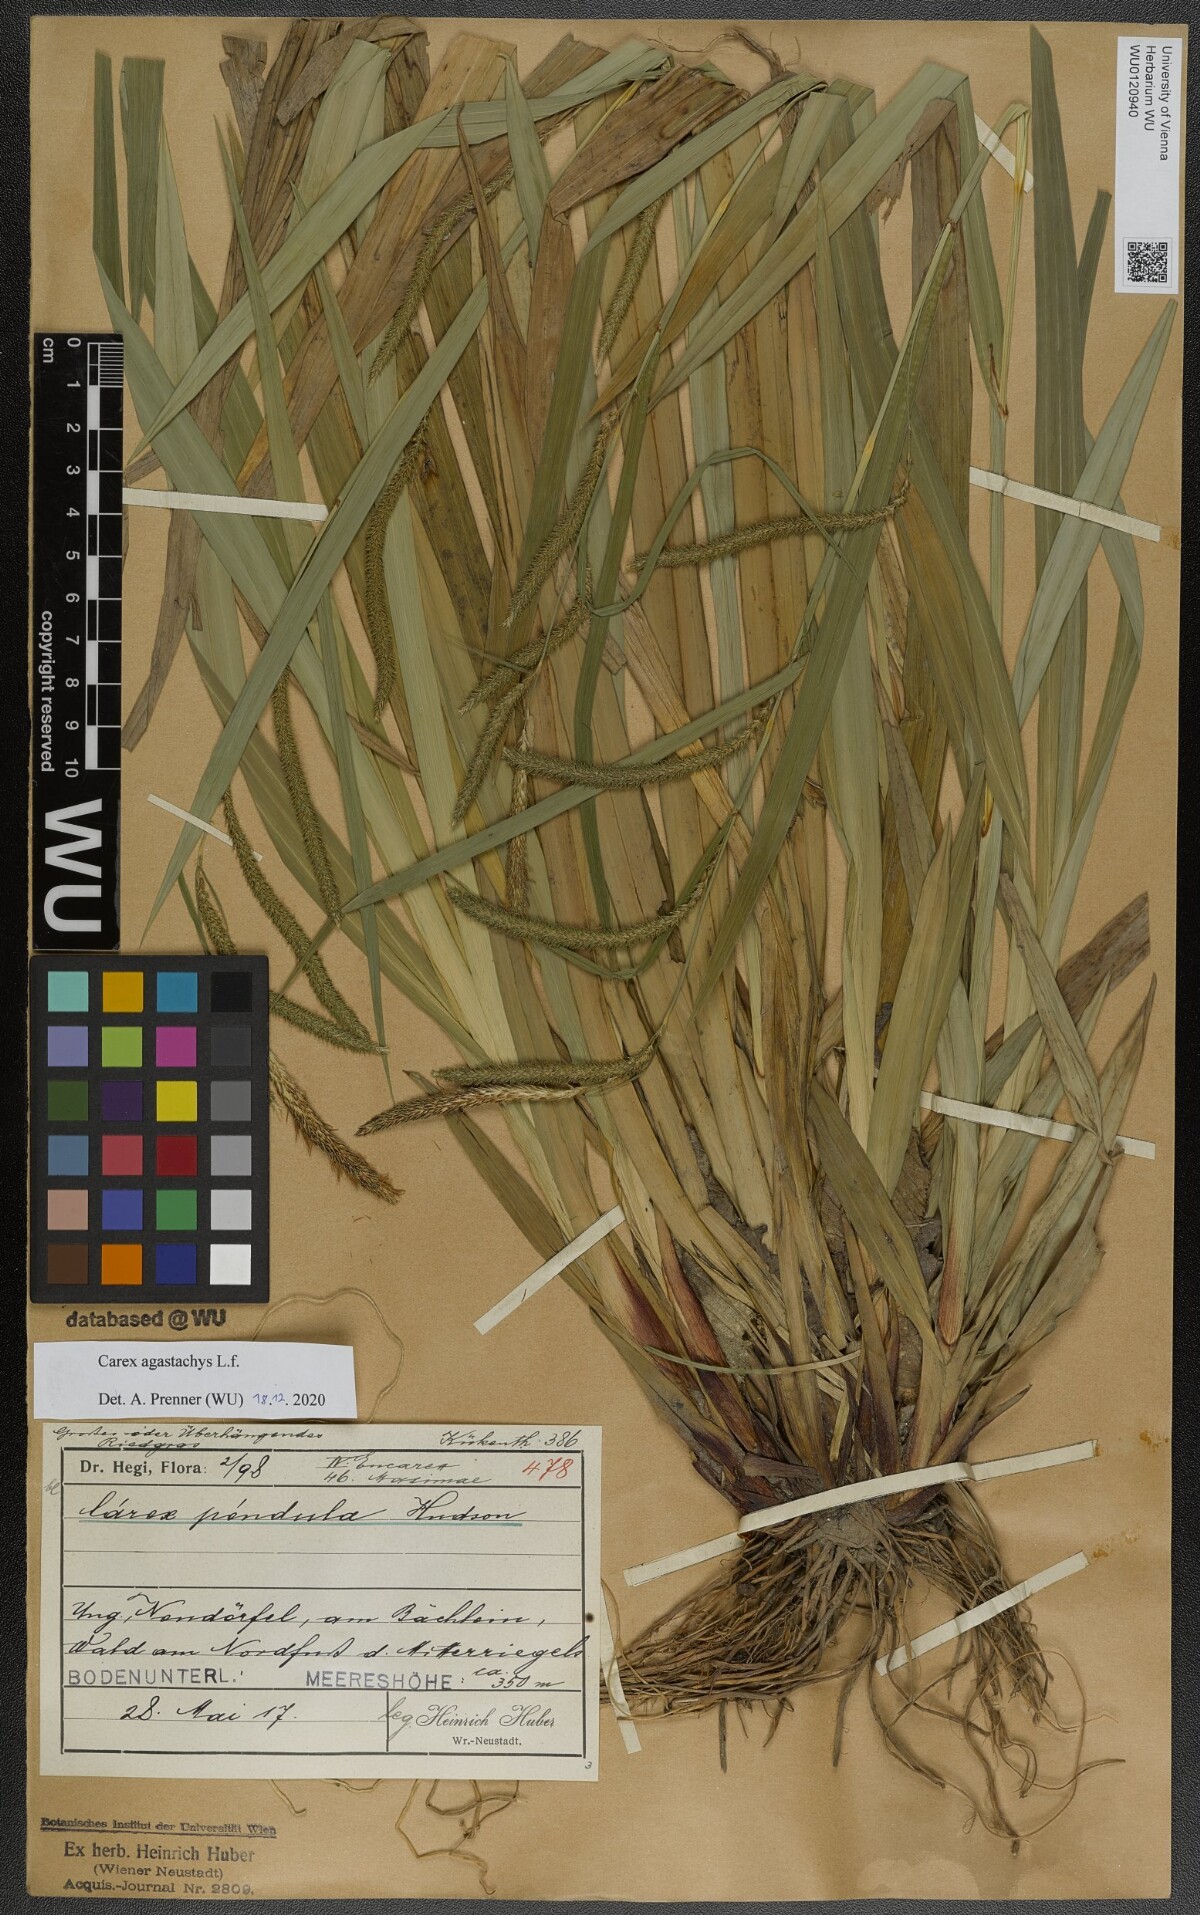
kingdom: Plantae
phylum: Tracheophyta
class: Liliopsida
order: Poales
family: Cyperaceae
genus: Carex
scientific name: Carex agastachys
